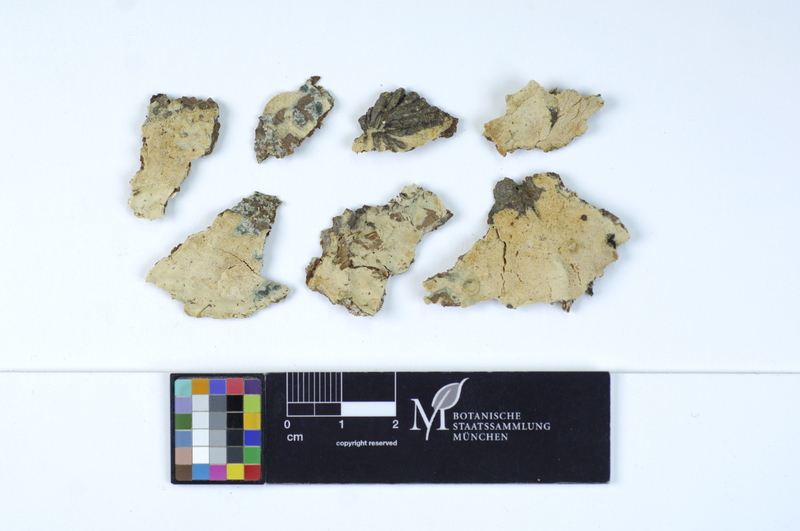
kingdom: Plantae
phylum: Tracheophyta
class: Pinopsida
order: Pinales
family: Pinaceae
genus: Picea
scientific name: Picea
